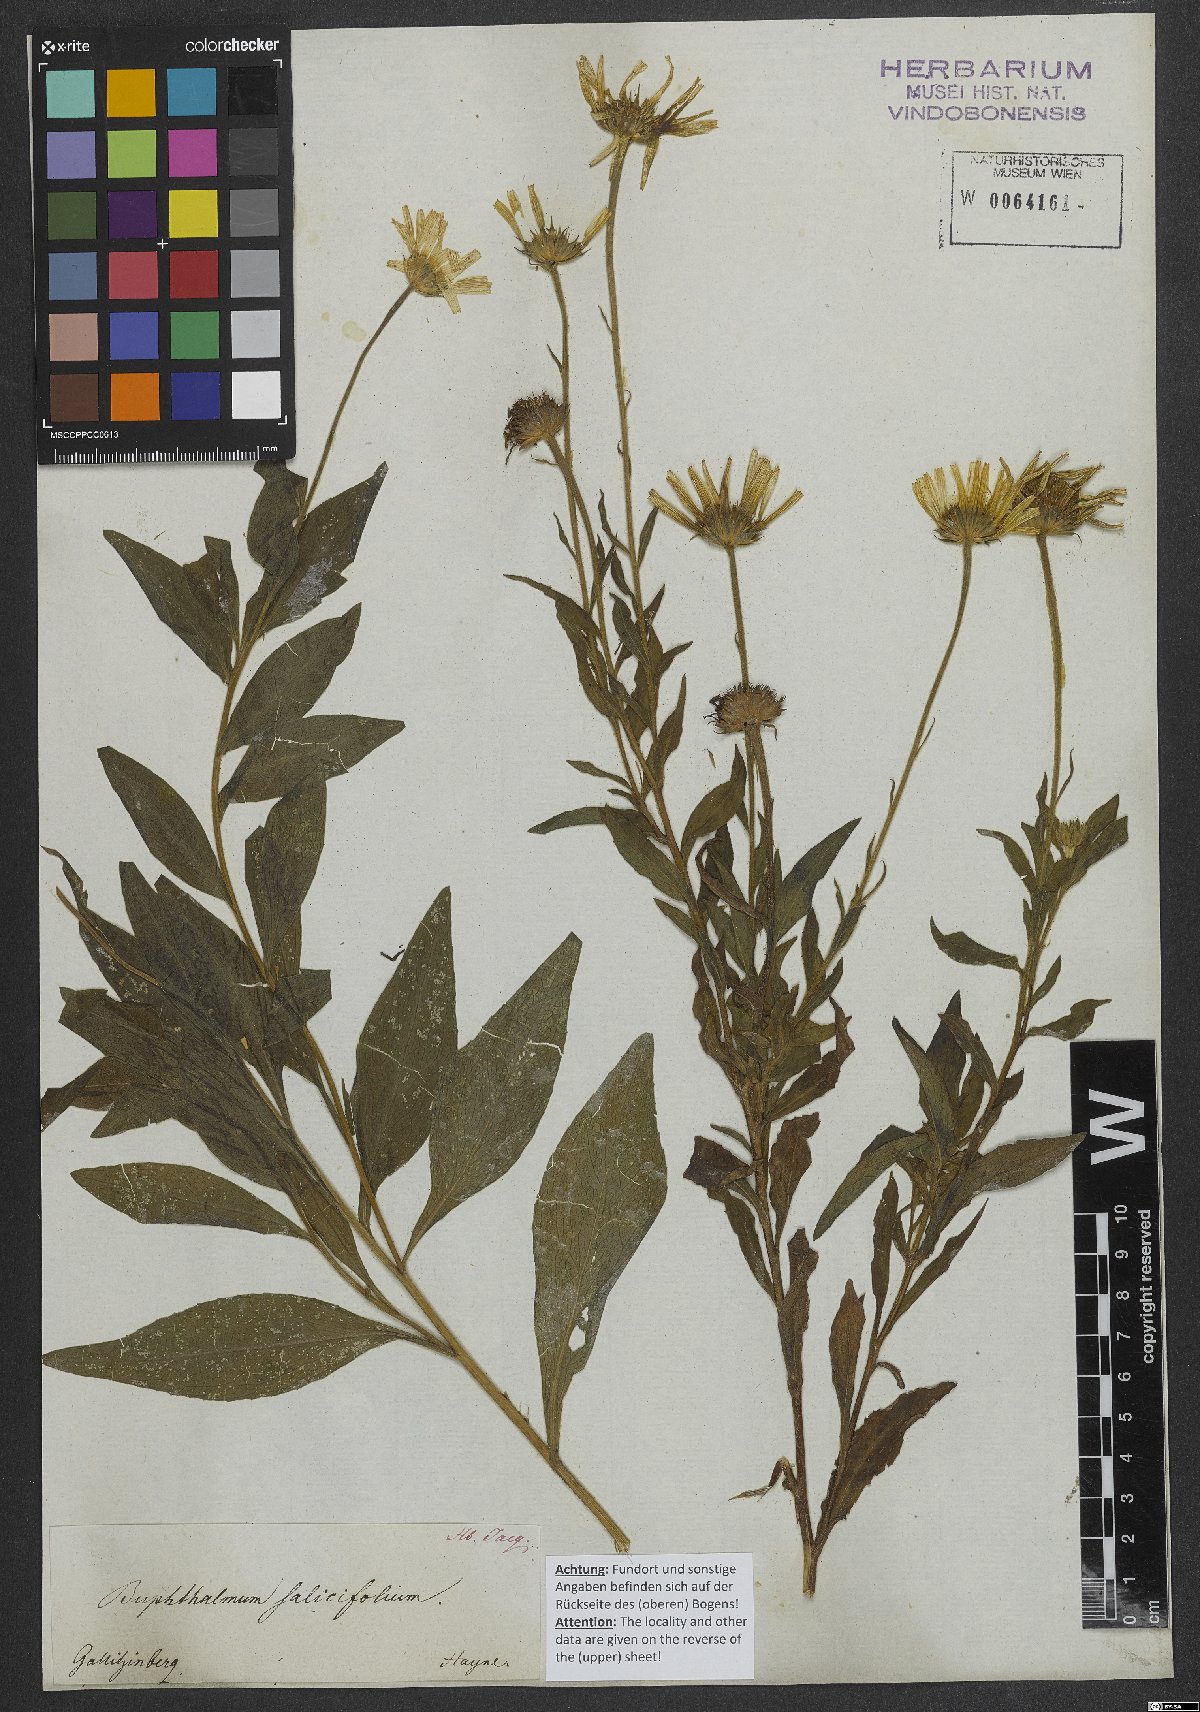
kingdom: Plantae
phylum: Tracheophyta
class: Magnoliopsida
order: Asterales
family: Asteraceae
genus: Buphthalmum
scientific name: Buphthalmum salicifolium
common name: Willow-leaved yellow-oxeye
